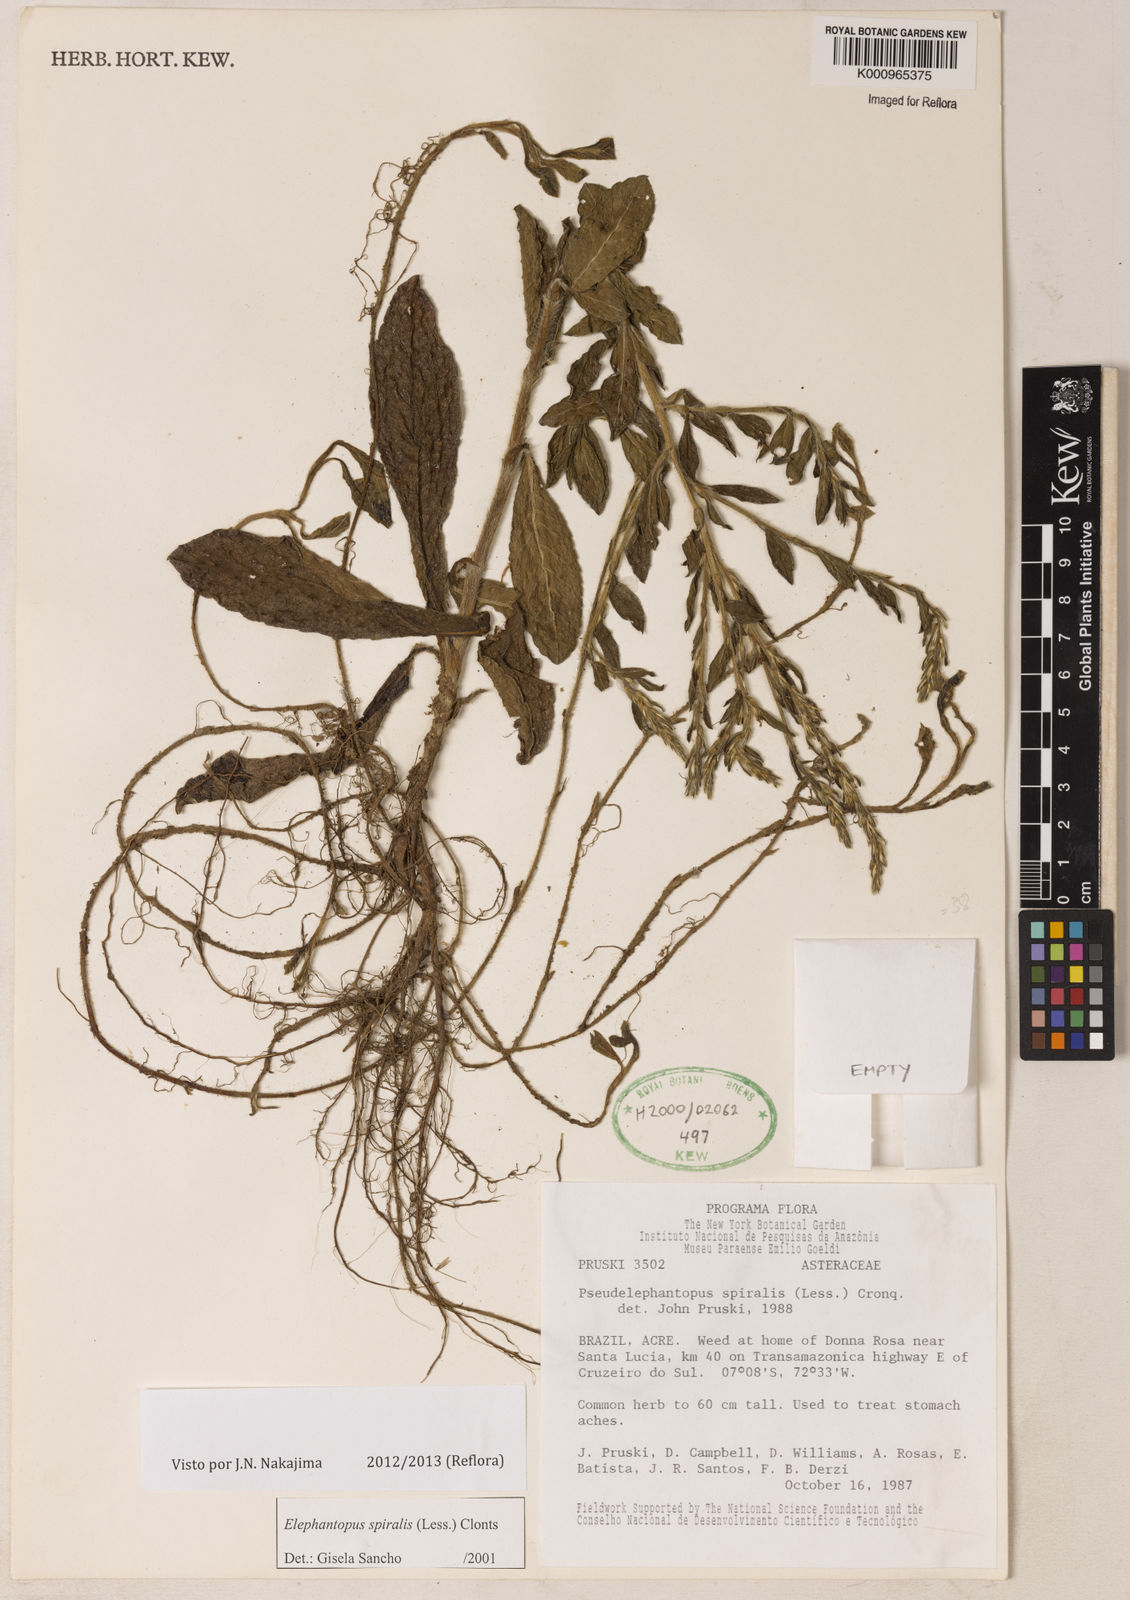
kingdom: Plantae
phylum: Tracheophyta
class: Magnoliopsida
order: Asterales
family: Asteraceae
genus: Pseudelephantopus
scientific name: Pseudelephantopus spiralis
